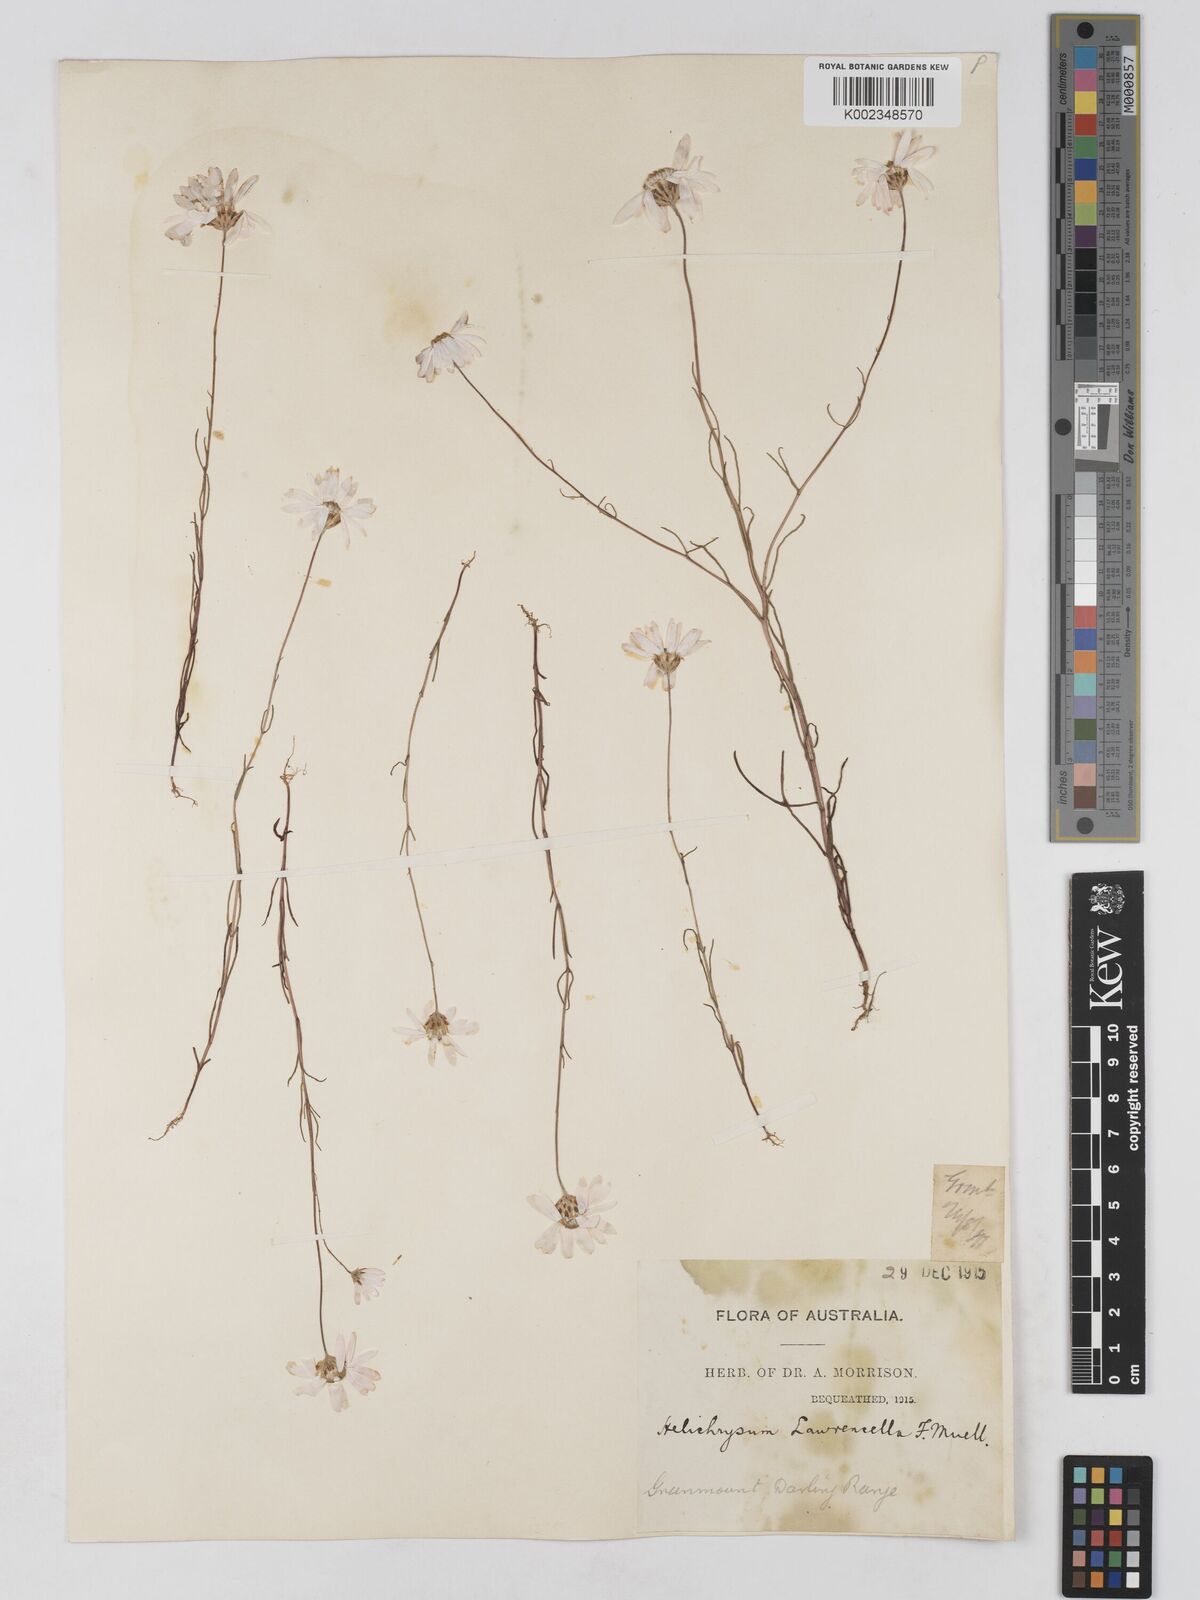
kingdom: Plantae
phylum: Tracheophyta
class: Magnoliopsida
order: Asterales
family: Asteraceae
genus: Lawrencella
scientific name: Lawrencella rosea
